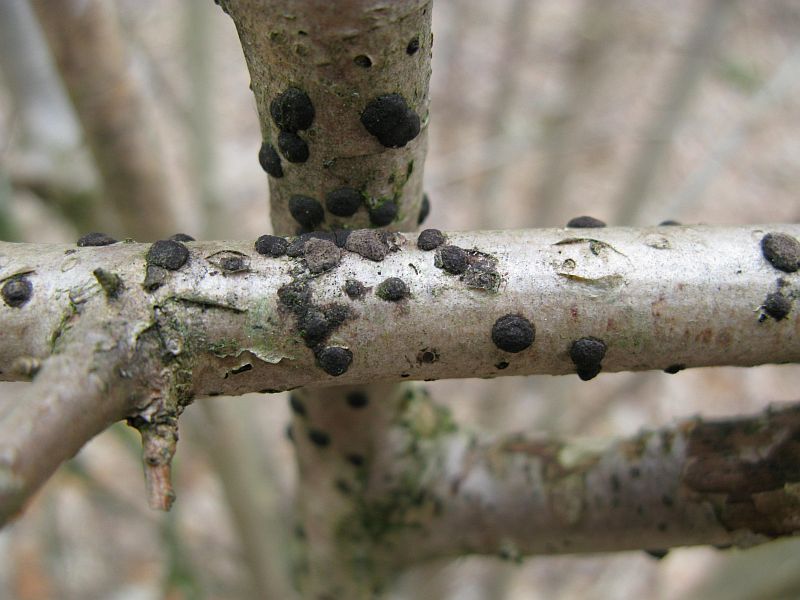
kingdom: Fungi
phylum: Ascomycota
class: Sordariomycetes
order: Xylariales
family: Hypoxylaceae
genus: Hypoxylon
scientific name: Hypoxylon fuscum
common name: kegleformet kulbær
